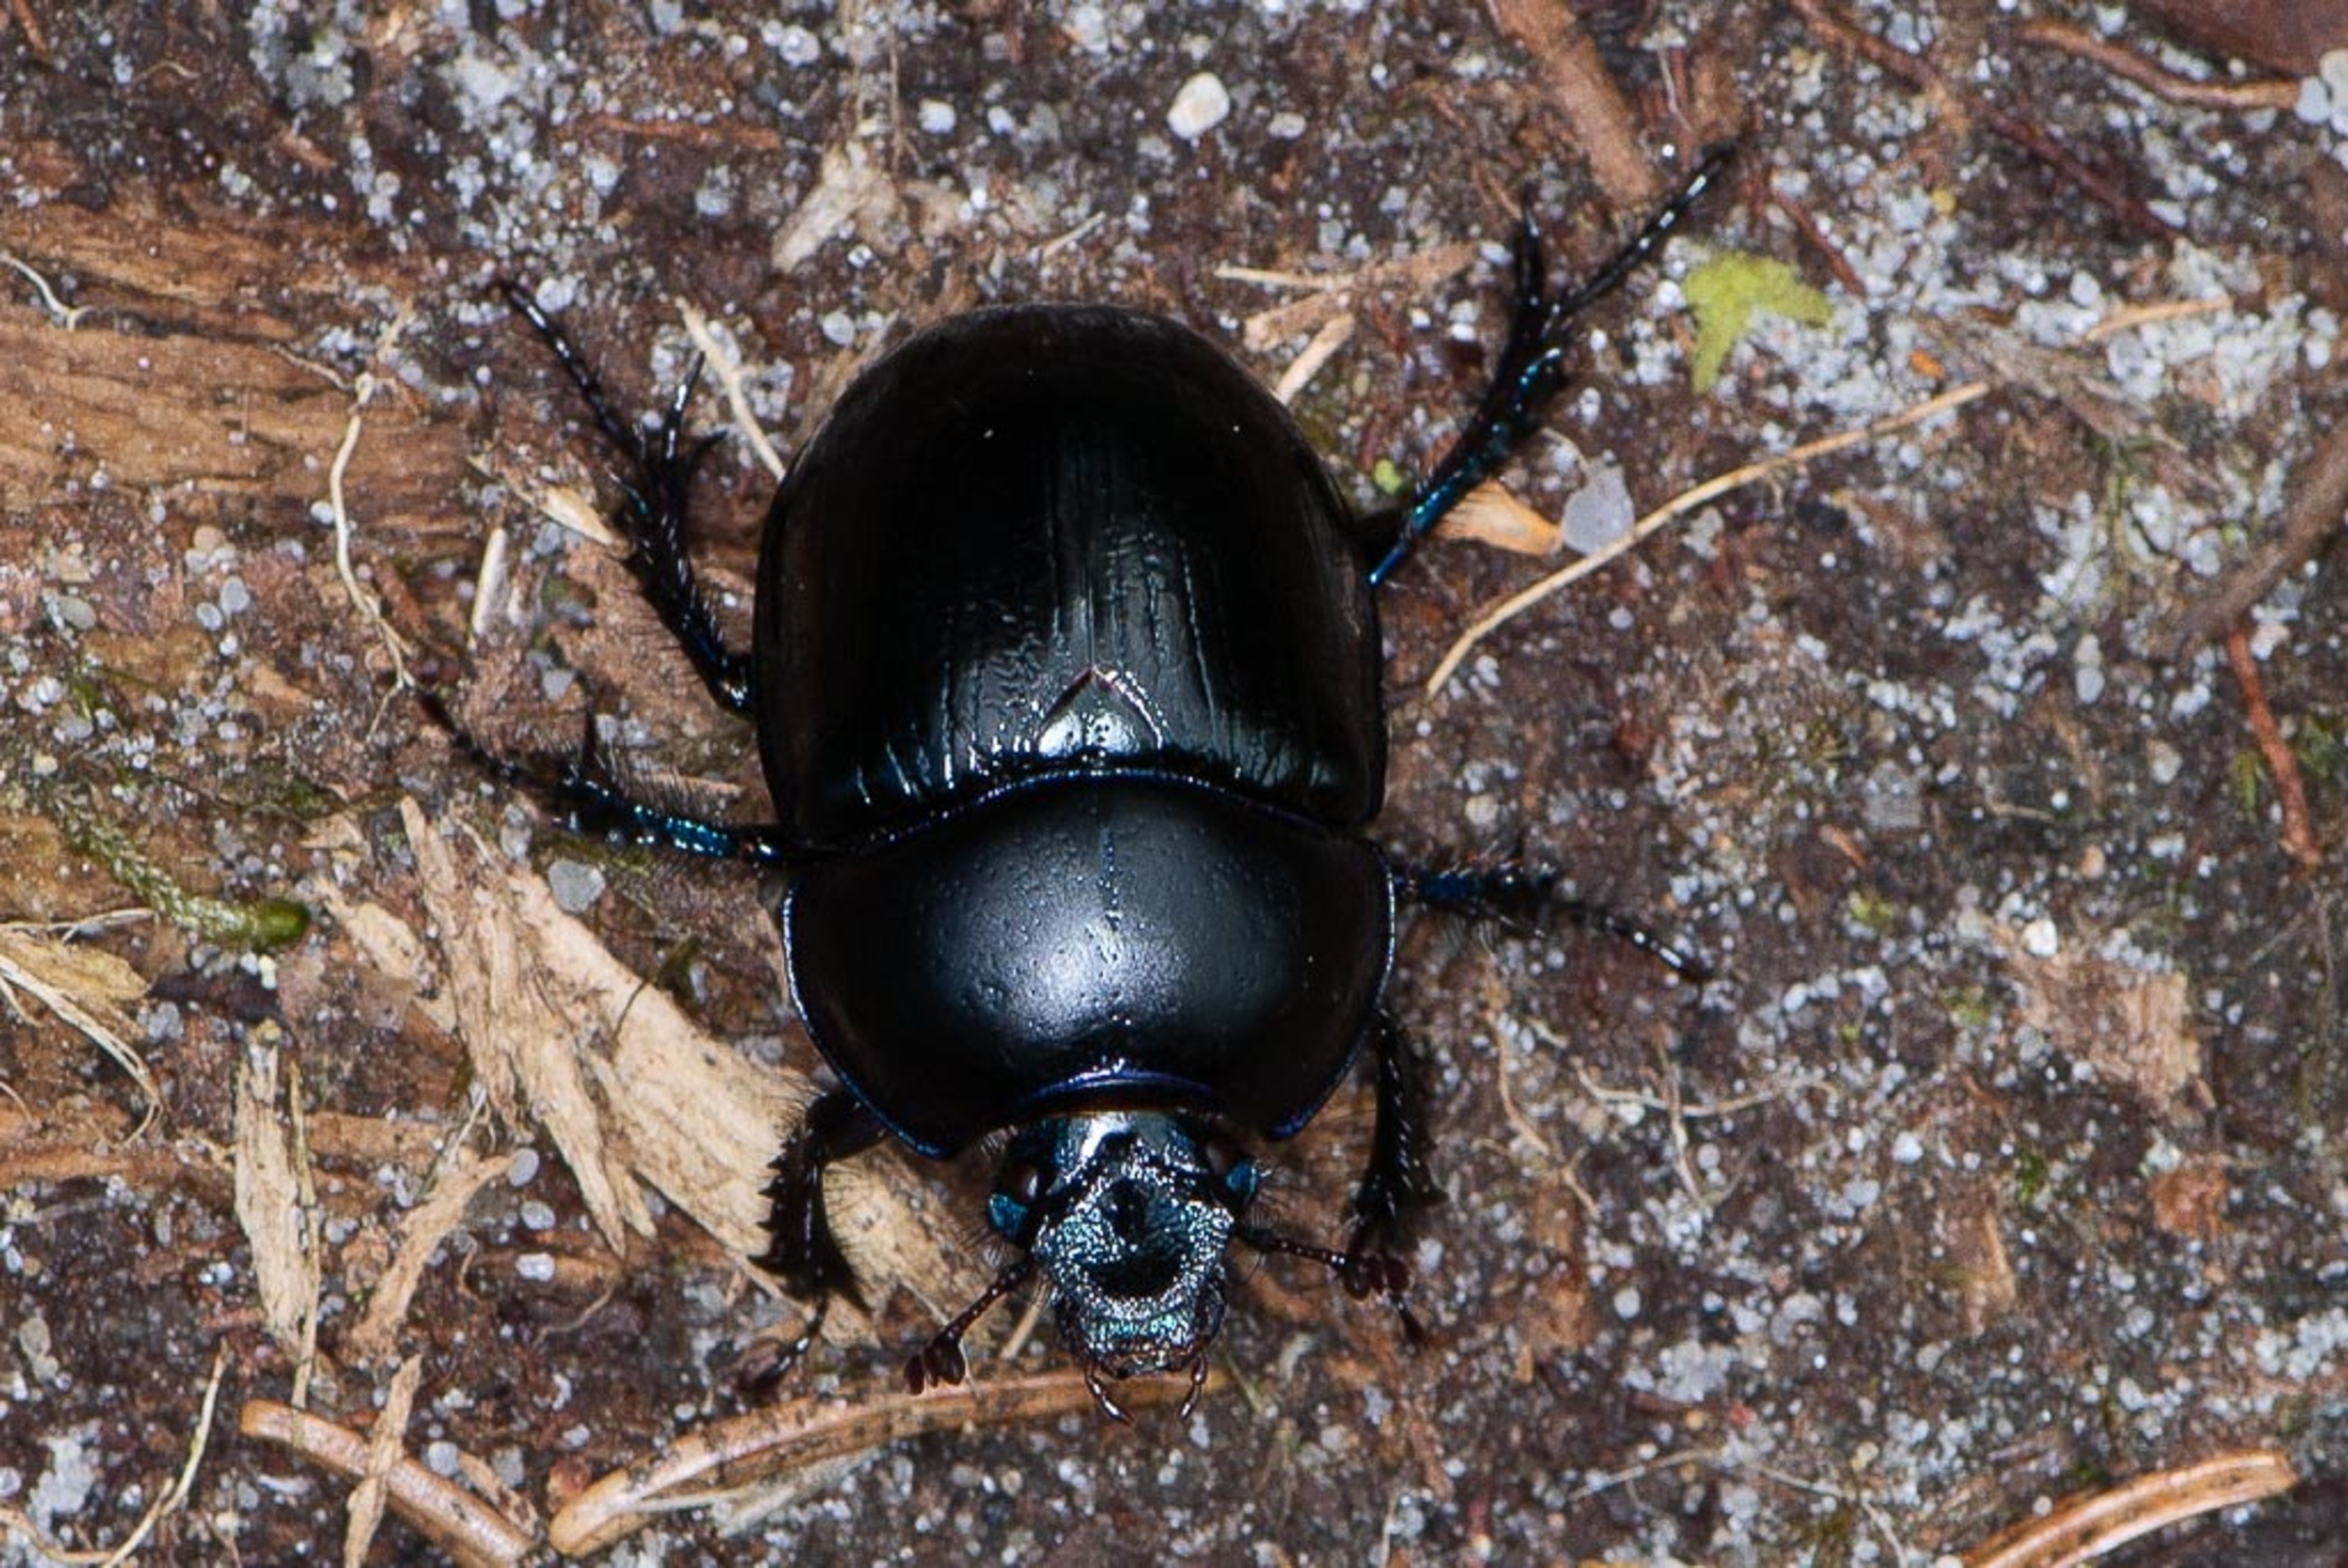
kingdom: Animalia
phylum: Arthropoda
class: Insecta
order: Coleoptera
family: Geotrupidae
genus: Anoplotrupes
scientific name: Anoplotrupes stercorosus
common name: Skovskarnbasse
